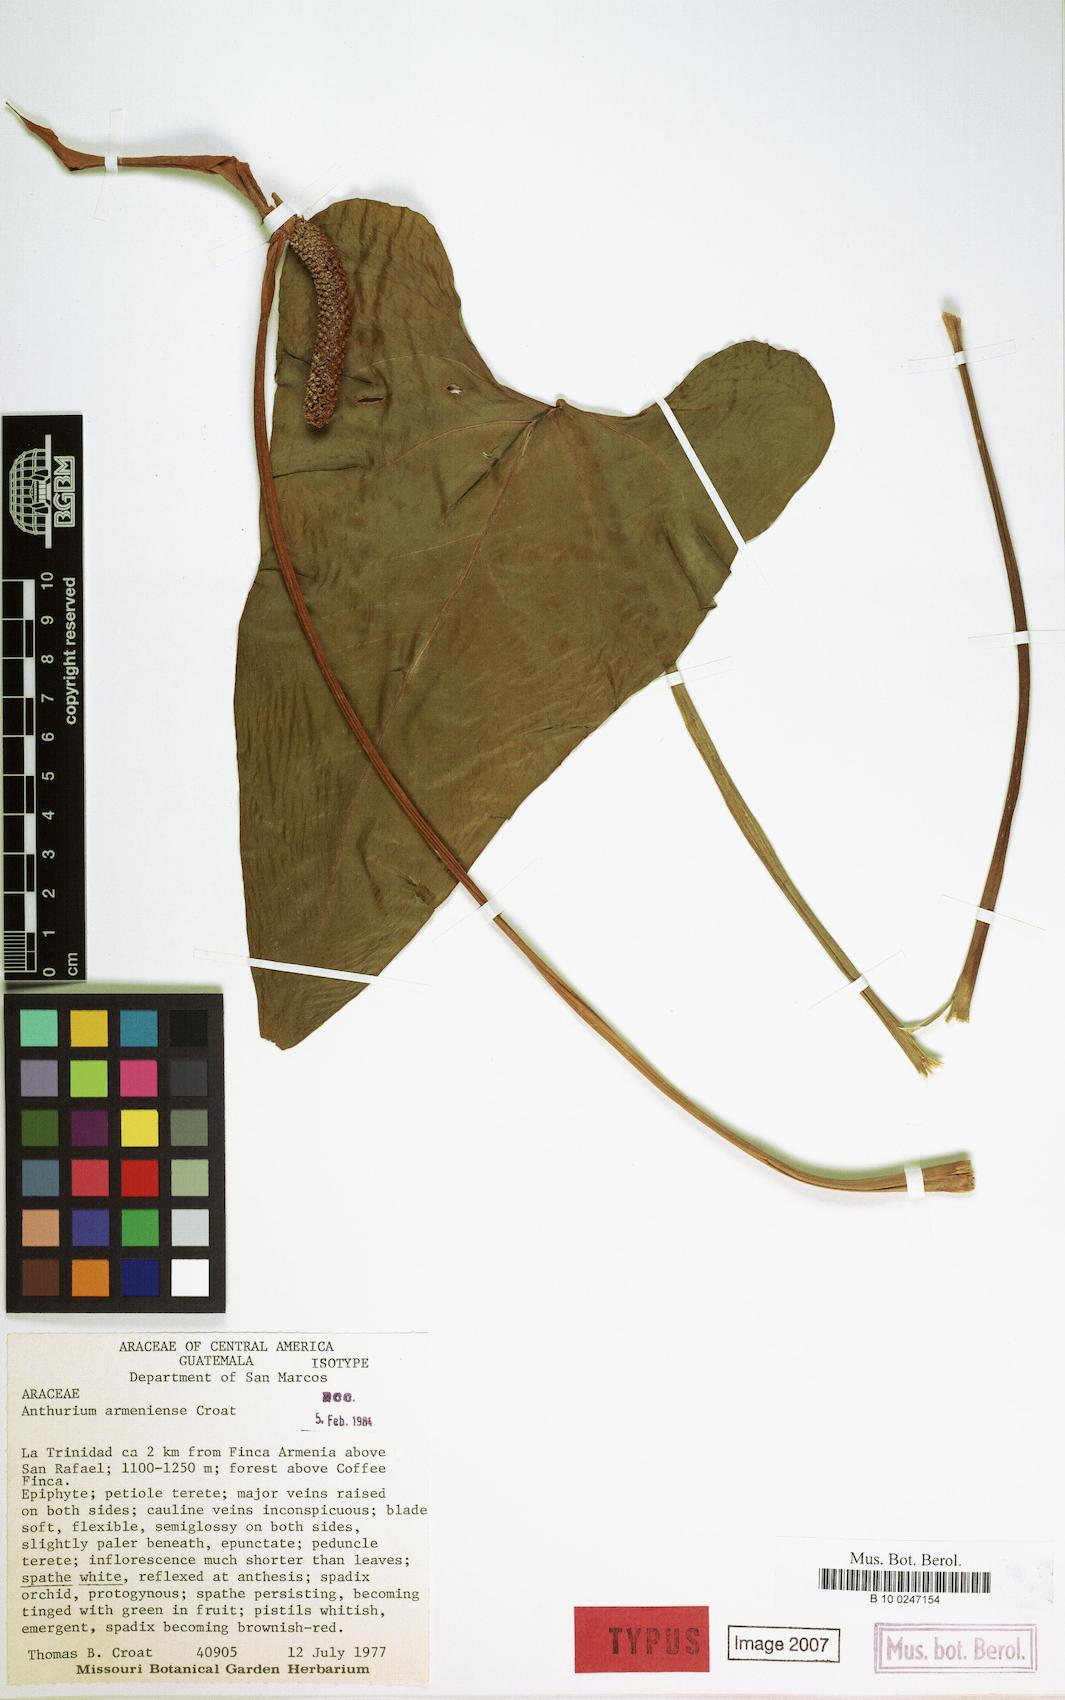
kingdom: Plantae
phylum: Tracheophyta
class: Liliopsida
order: Alismatales
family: Araceae
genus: Anthurium
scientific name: Anthurium armeniense
